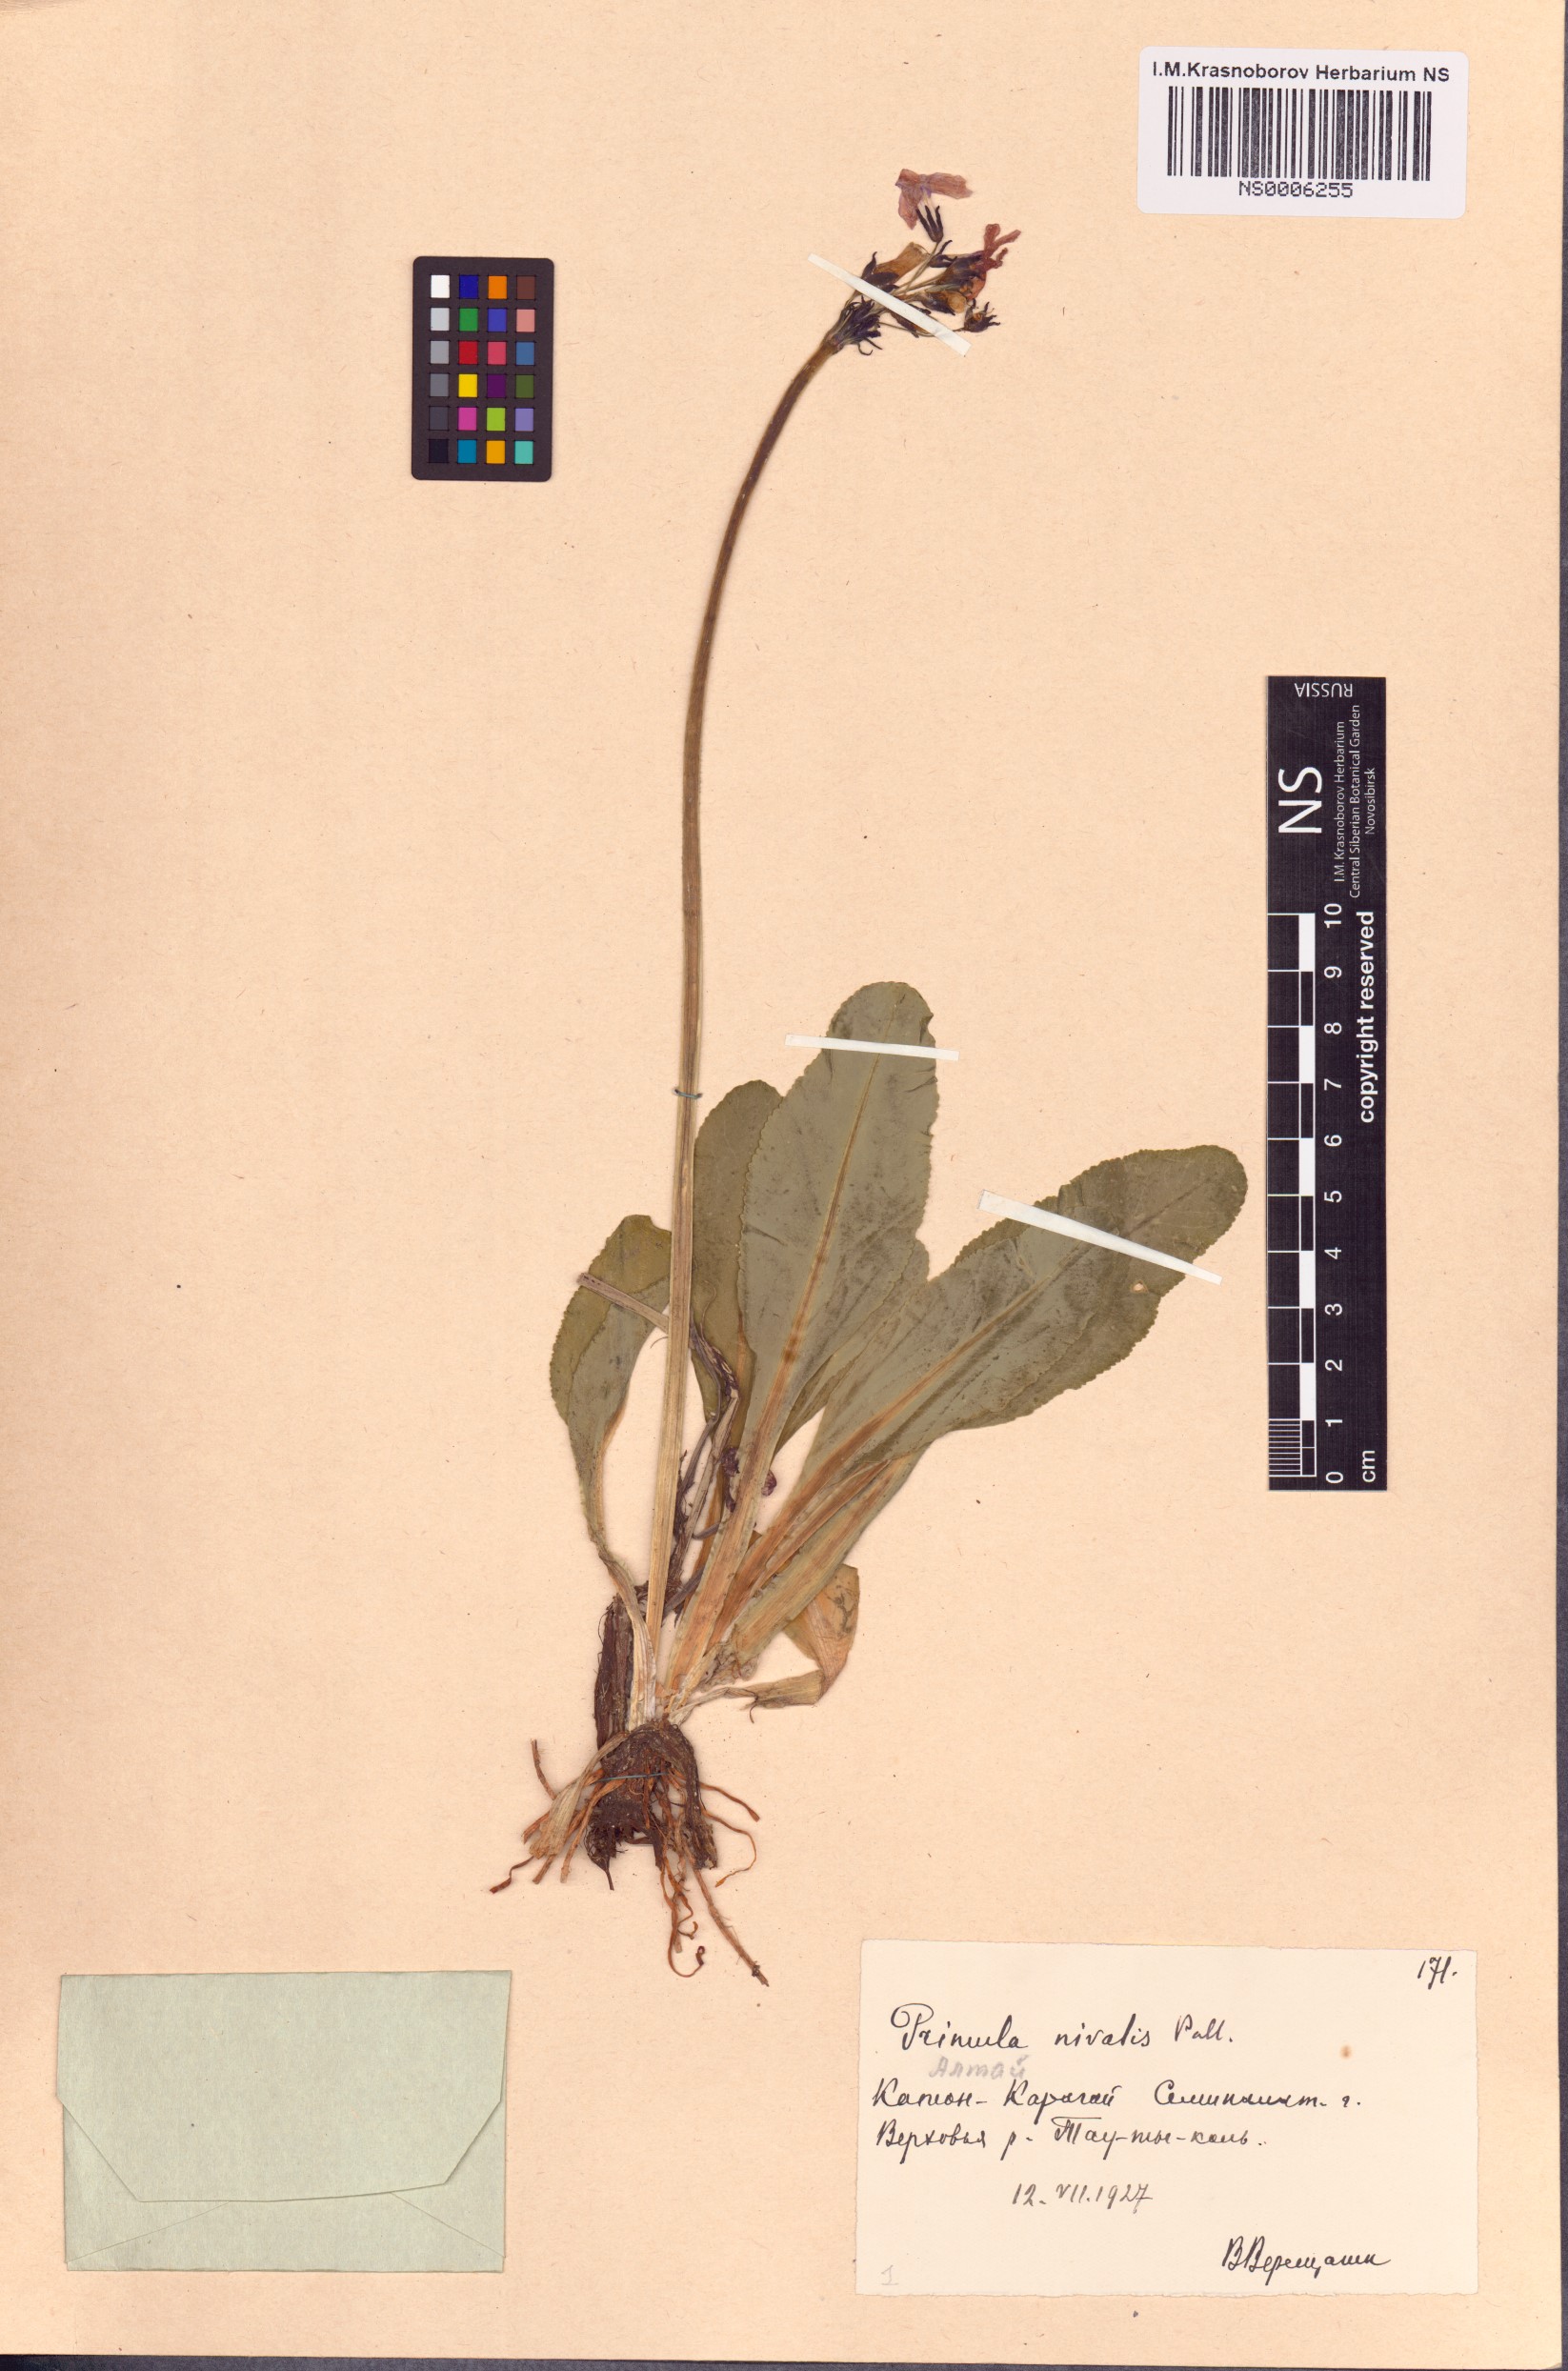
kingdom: Plantae
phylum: Tracheophyta
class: Magnoliopsida
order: Ericales
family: Primulaceae
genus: Primula
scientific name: Primula nivalis
